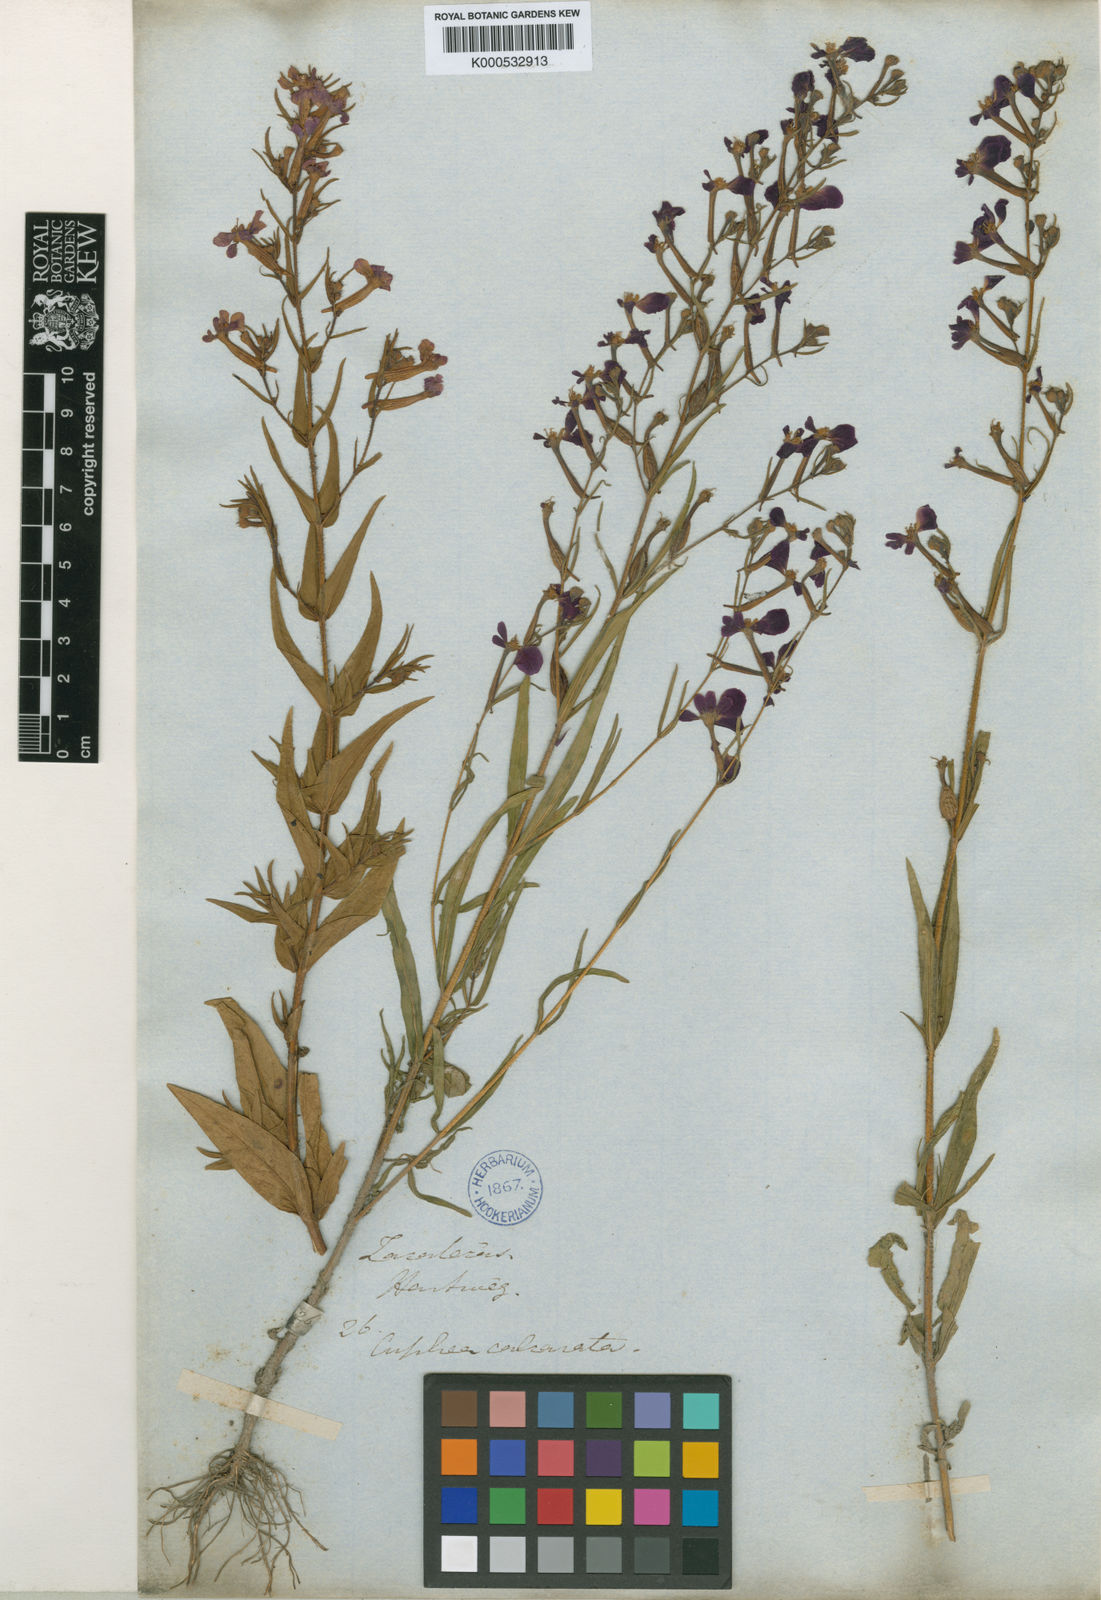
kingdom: Plantae
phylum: Tracheophyta
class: Magnoliopsida
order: Myrtales
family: Lythraceae
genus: Cuphea
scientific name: Cuphea calcarata
